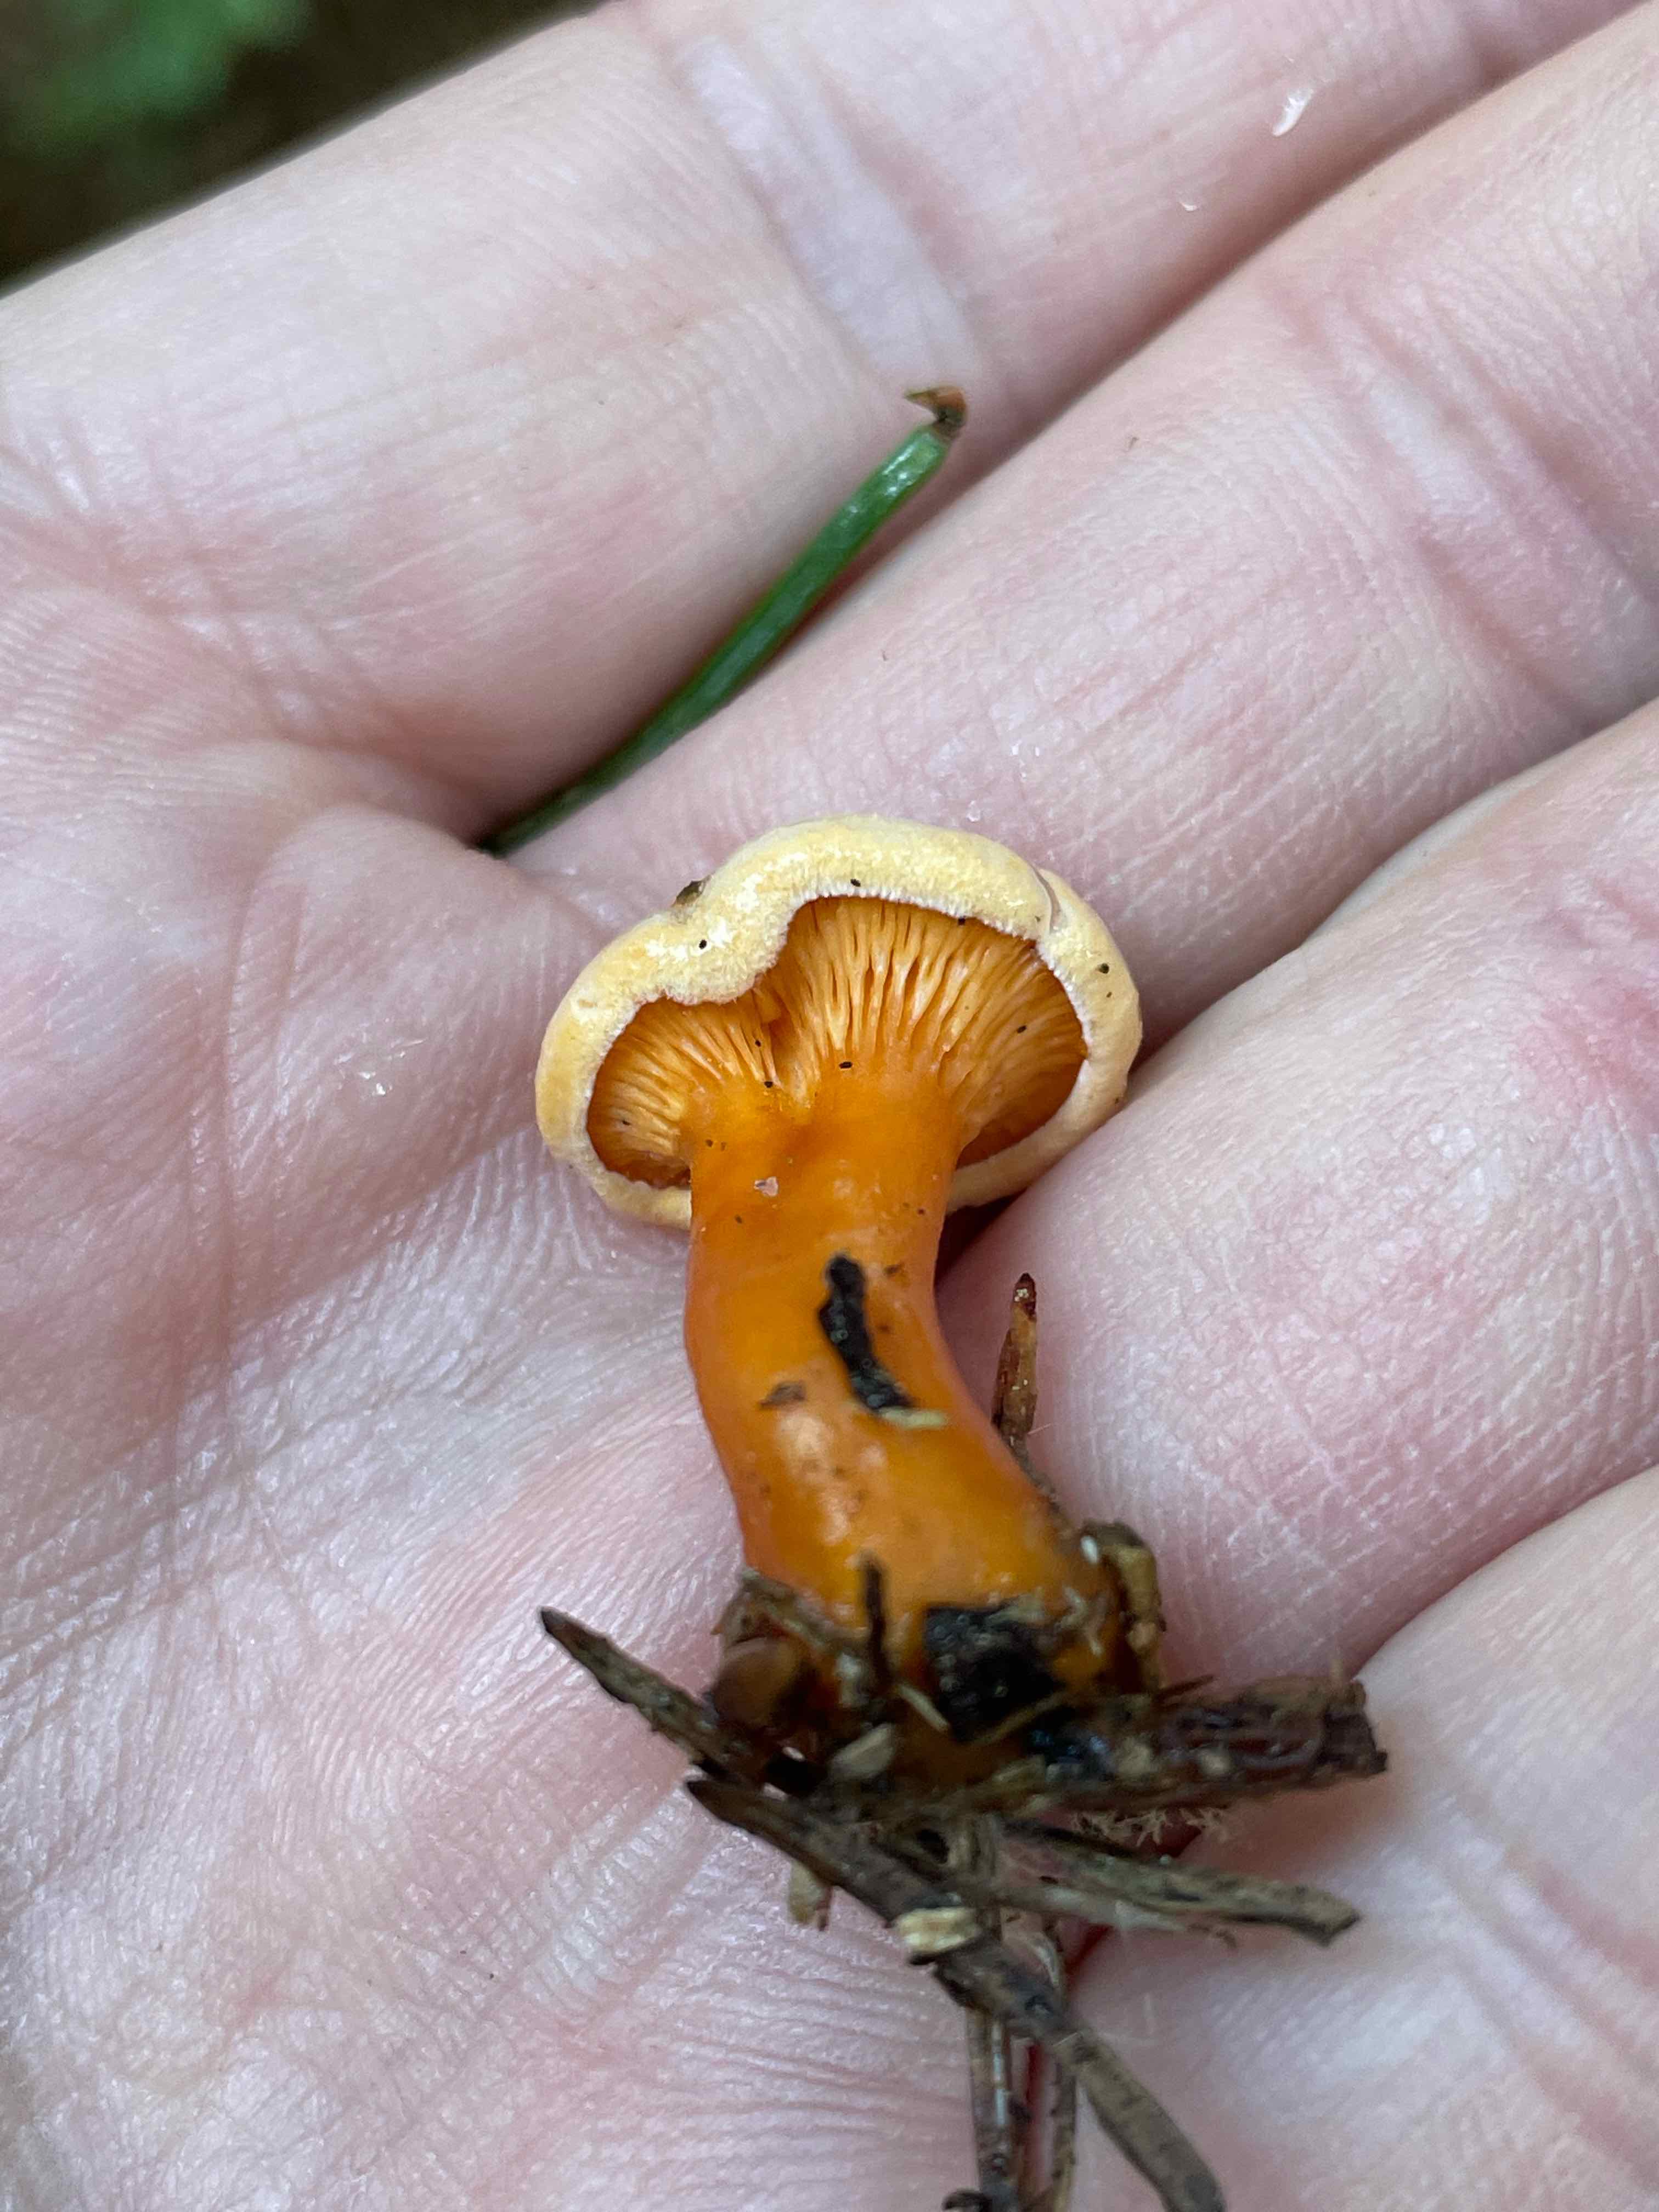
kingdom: Fungi
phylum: Basidiomycota
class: Agaricomycetes
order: Boletales
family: Hygrophoropsidaceae
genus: Hygrophoropsis
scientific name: Hygrophoropsis aurantiaca
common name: almindelig orangekantarel
